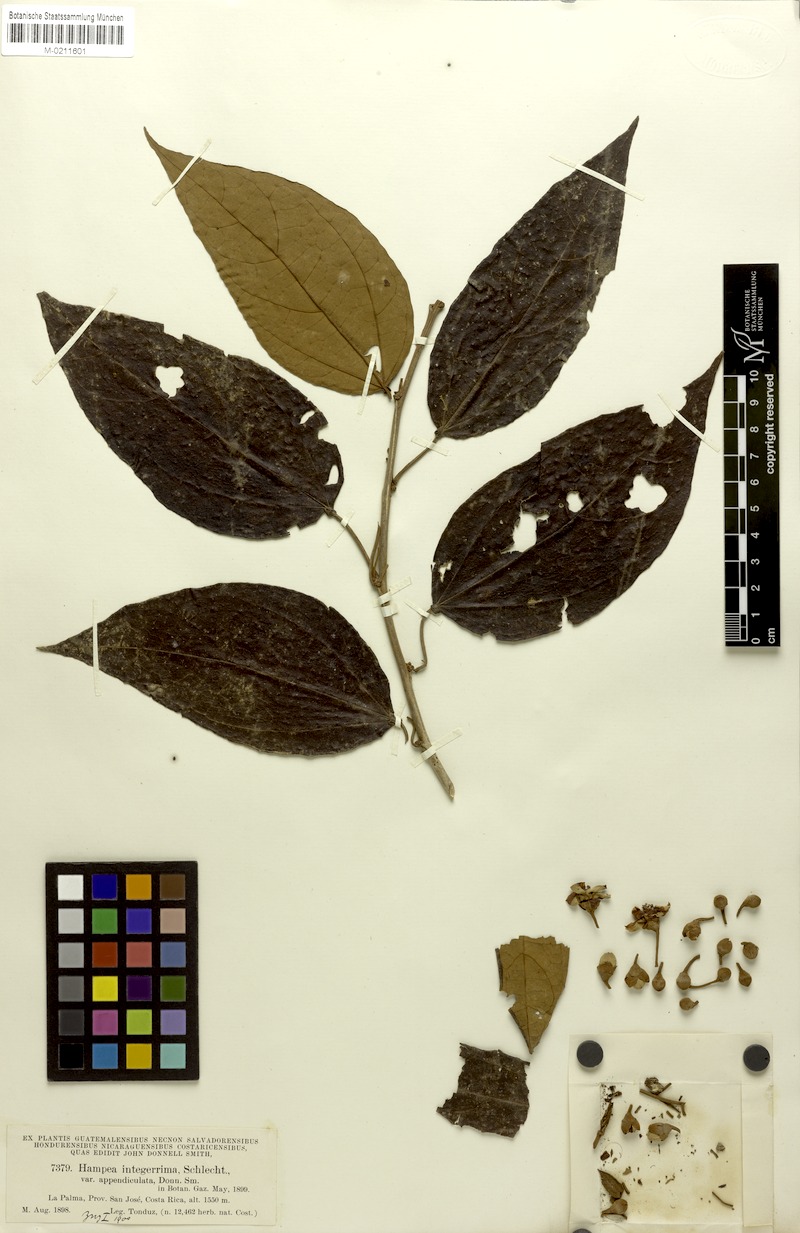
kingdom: Plantae
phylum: Tracheophyta
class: Magnoliopsida
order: Malvales
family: Malvaceae
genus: Hampea
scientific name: Hampea appendiculata
